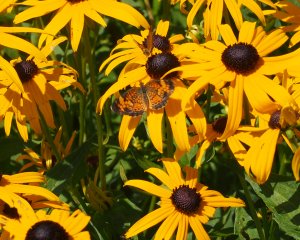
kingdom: Animalia
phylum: Arthropoda
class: Insecta
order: Lepidoptera
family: Nymphalidae
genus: Phyciodes
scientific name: Phyciodes tharos
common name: Pearl Crescent
